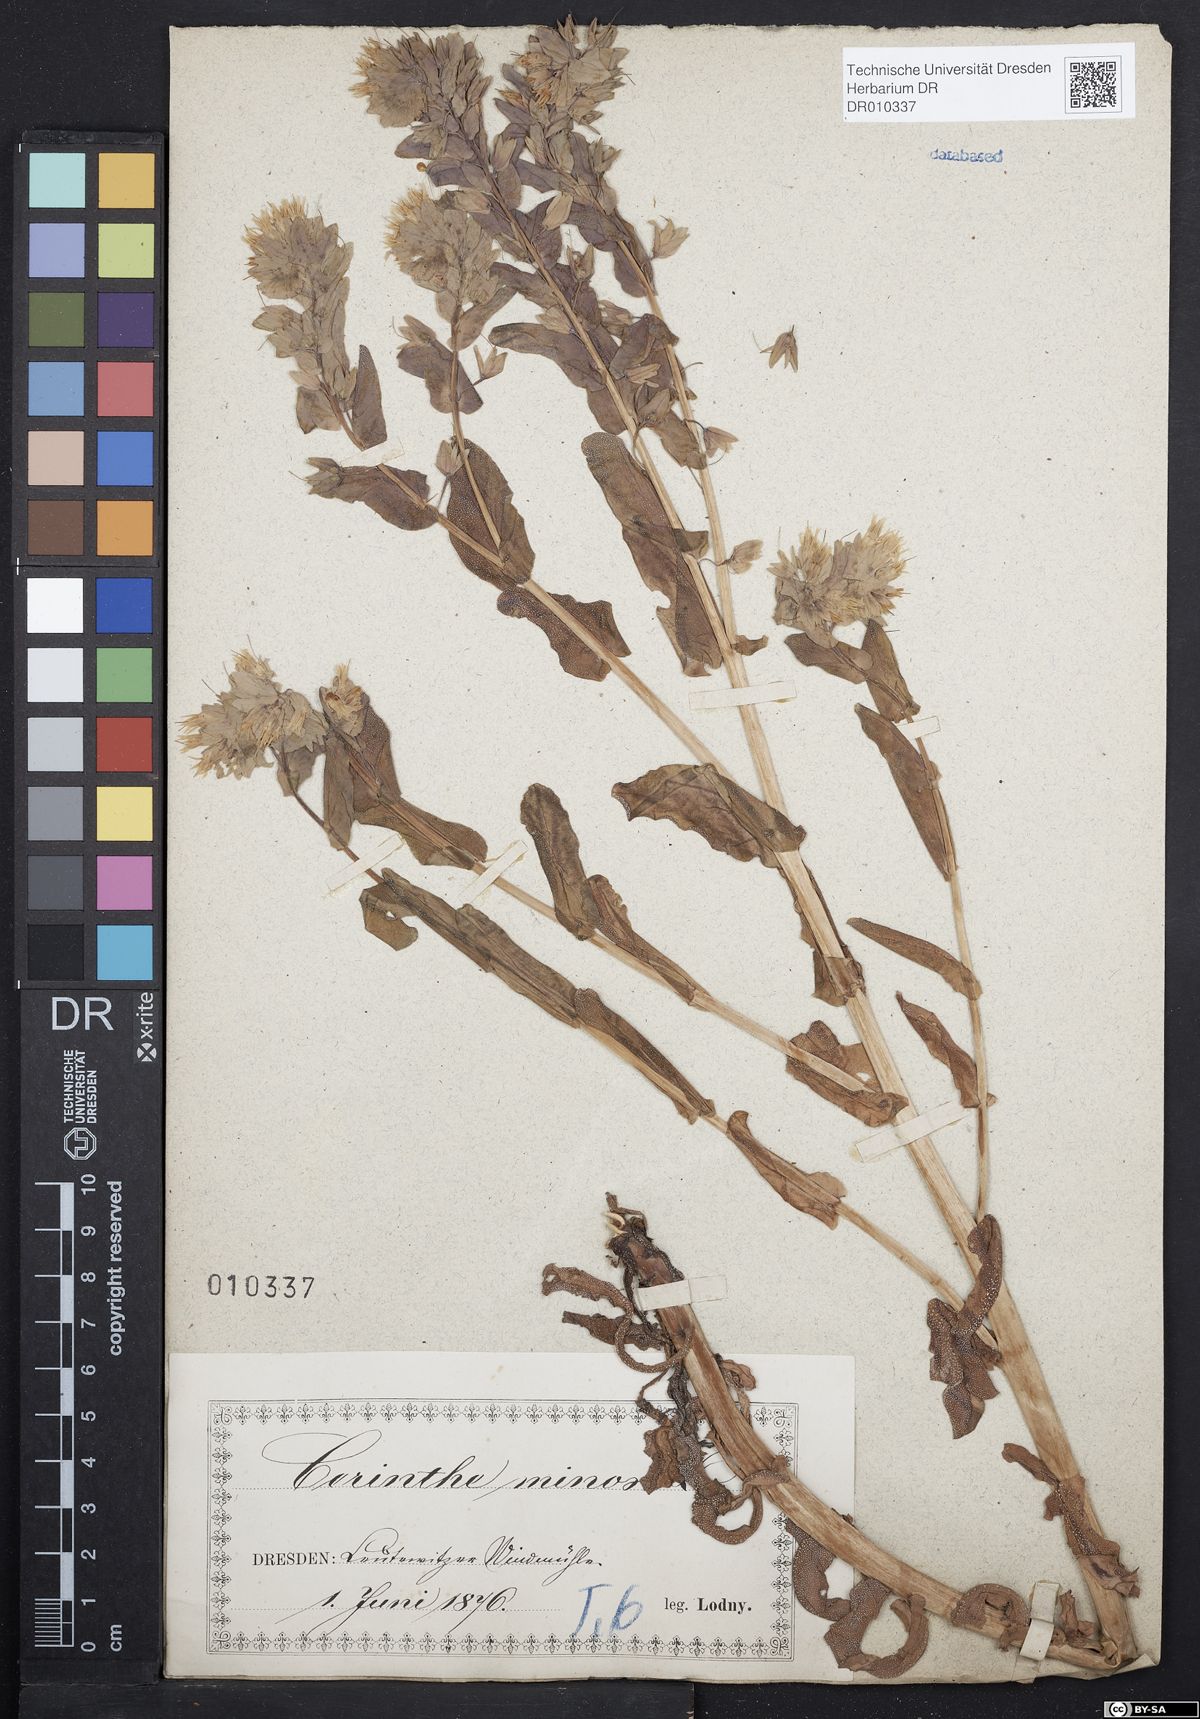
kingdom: Plantae
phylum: Tracheophyta
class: Magnoliopsida
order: Boraginales
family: Boraginaceae
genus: Cerinthe
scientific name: Cerinthe minor
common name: Lesser honeywort
